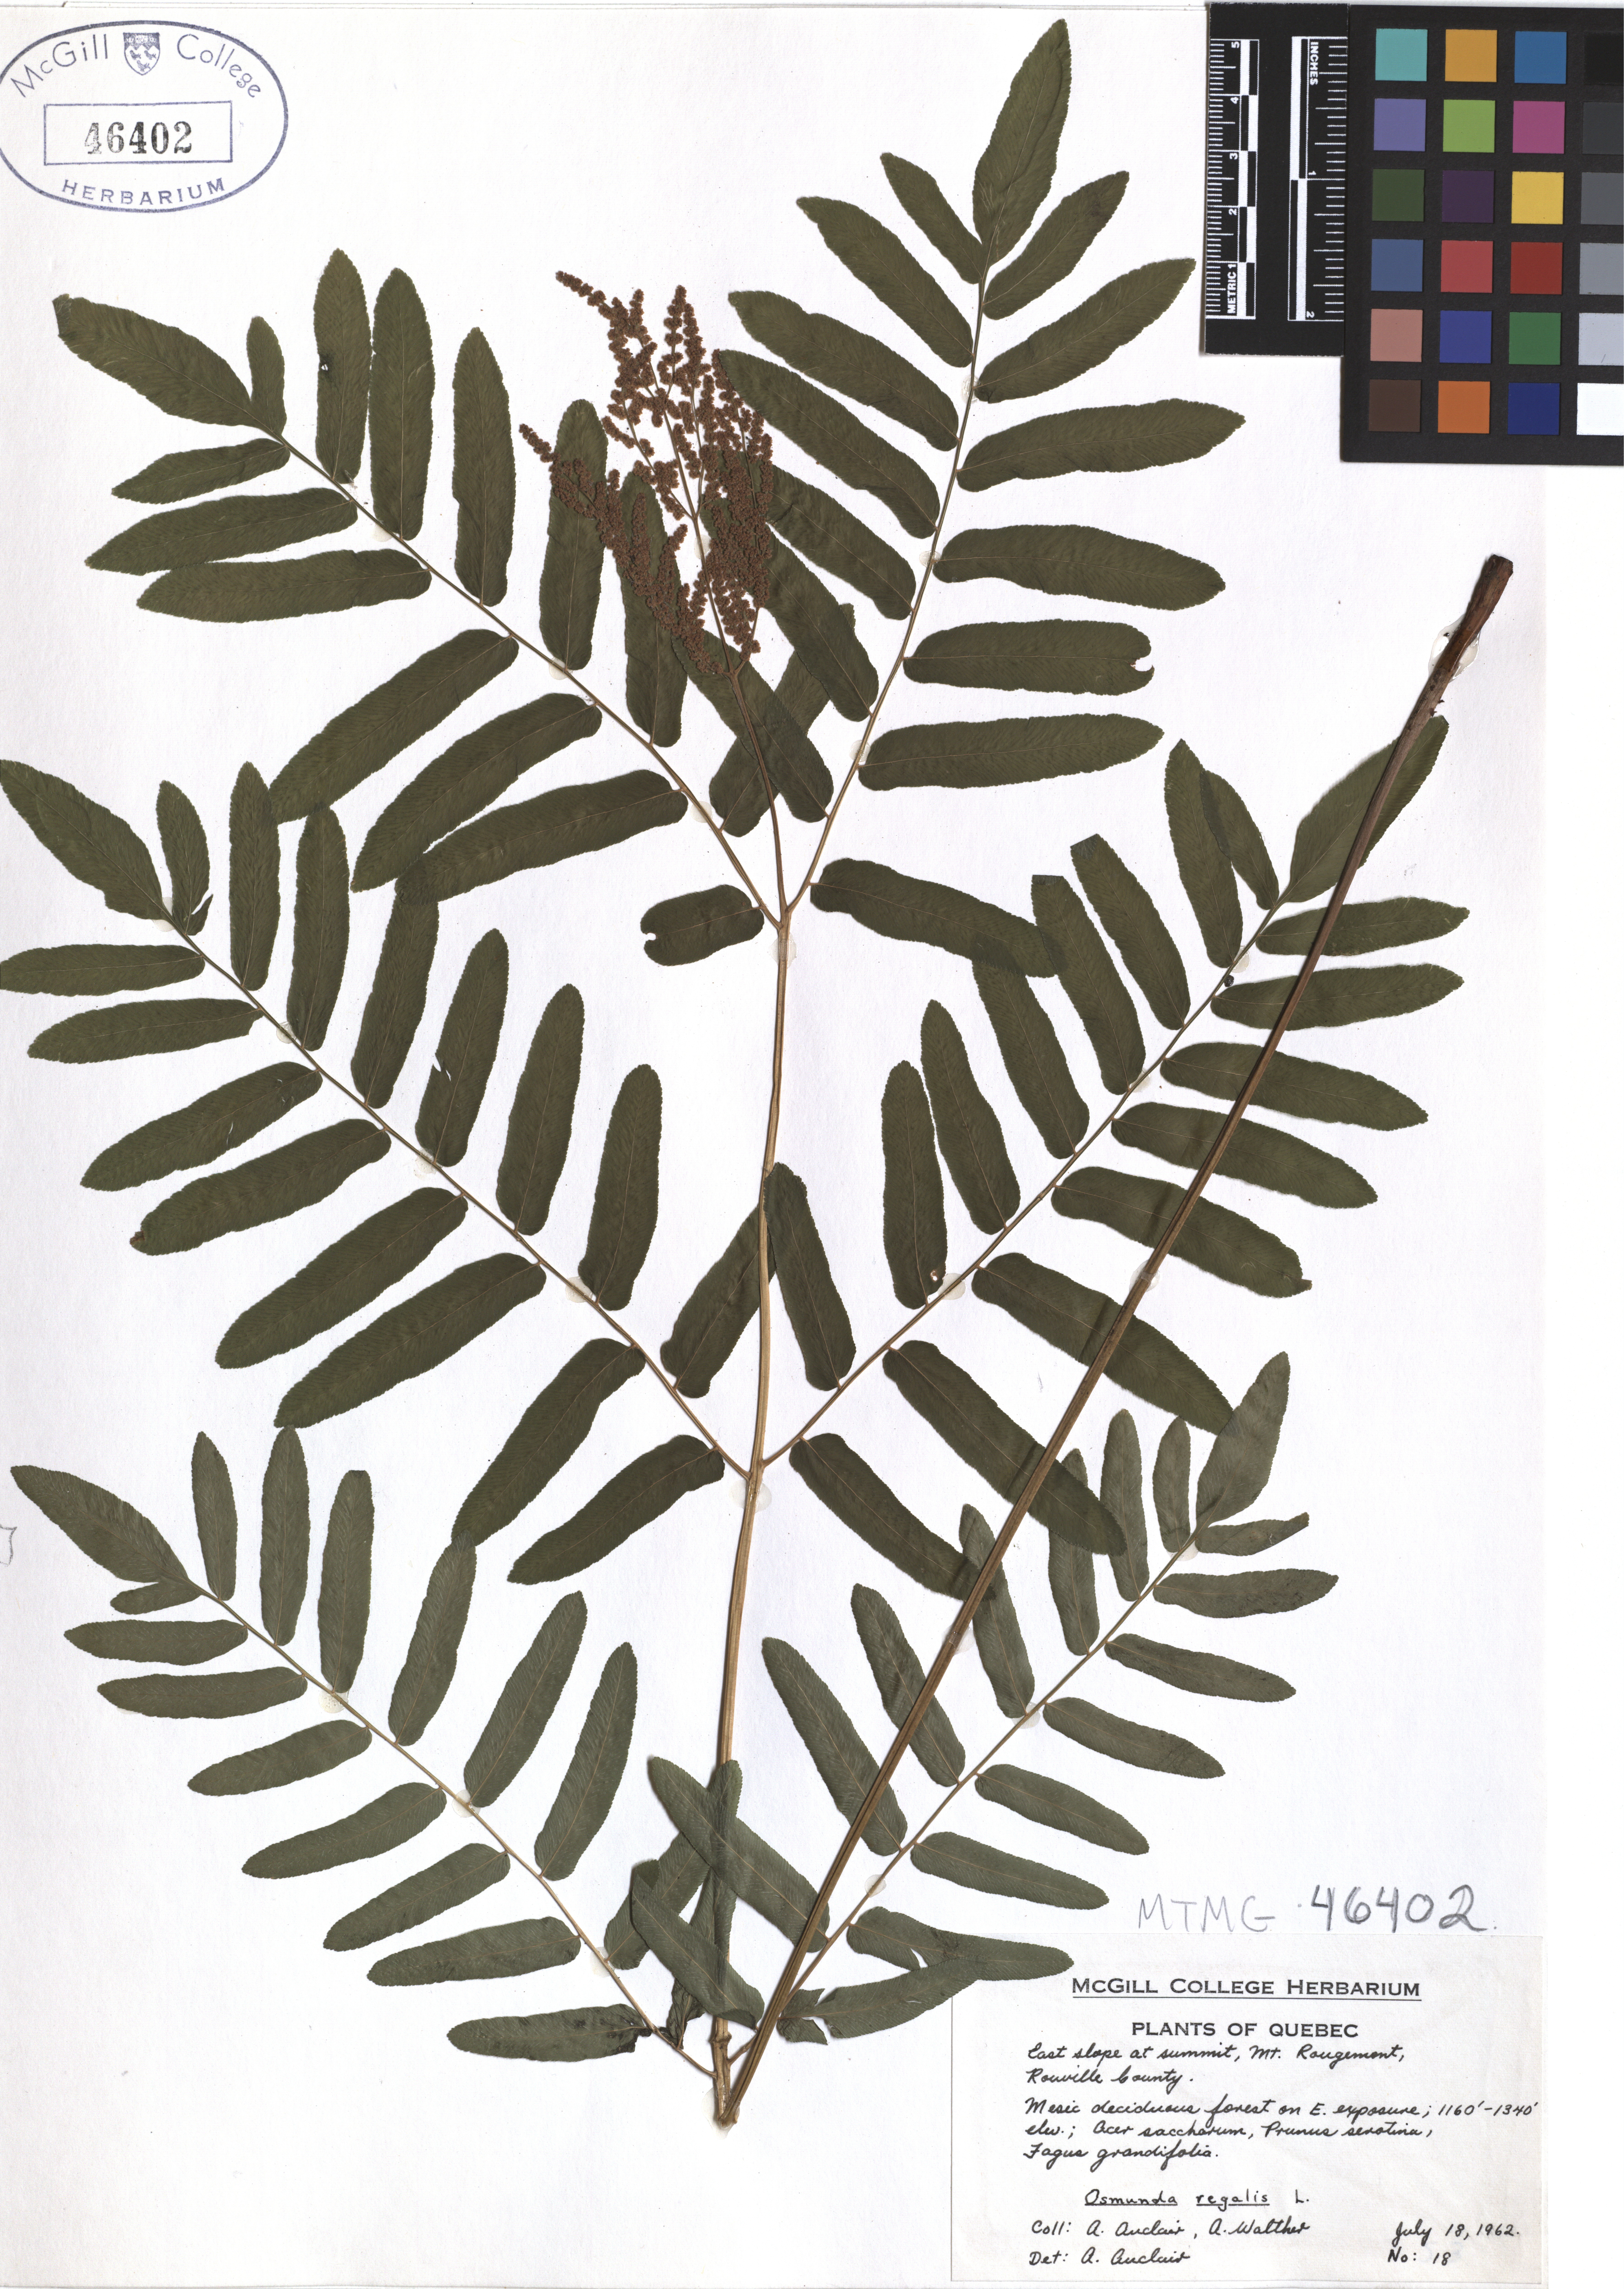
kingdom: Plantae
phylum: Tracheophyta
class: Polypodiopsida
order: Osmundales
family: Osmundaceae
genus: Osmunda
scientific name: Osmunda regalis
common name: Royal fern
